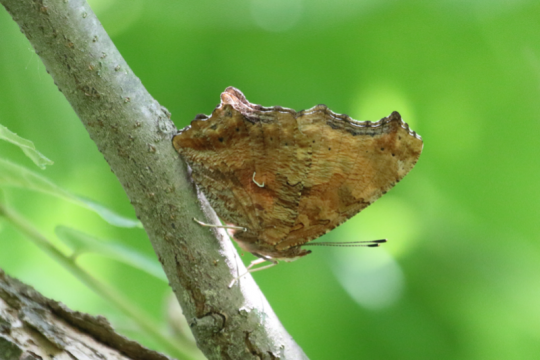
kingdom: Animalia
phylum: Arthropoda
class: Insecta
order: Lepidoptera
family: Nymphalidae
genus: Polygonia
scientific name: Polygonia comma
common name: Eastern Comma
